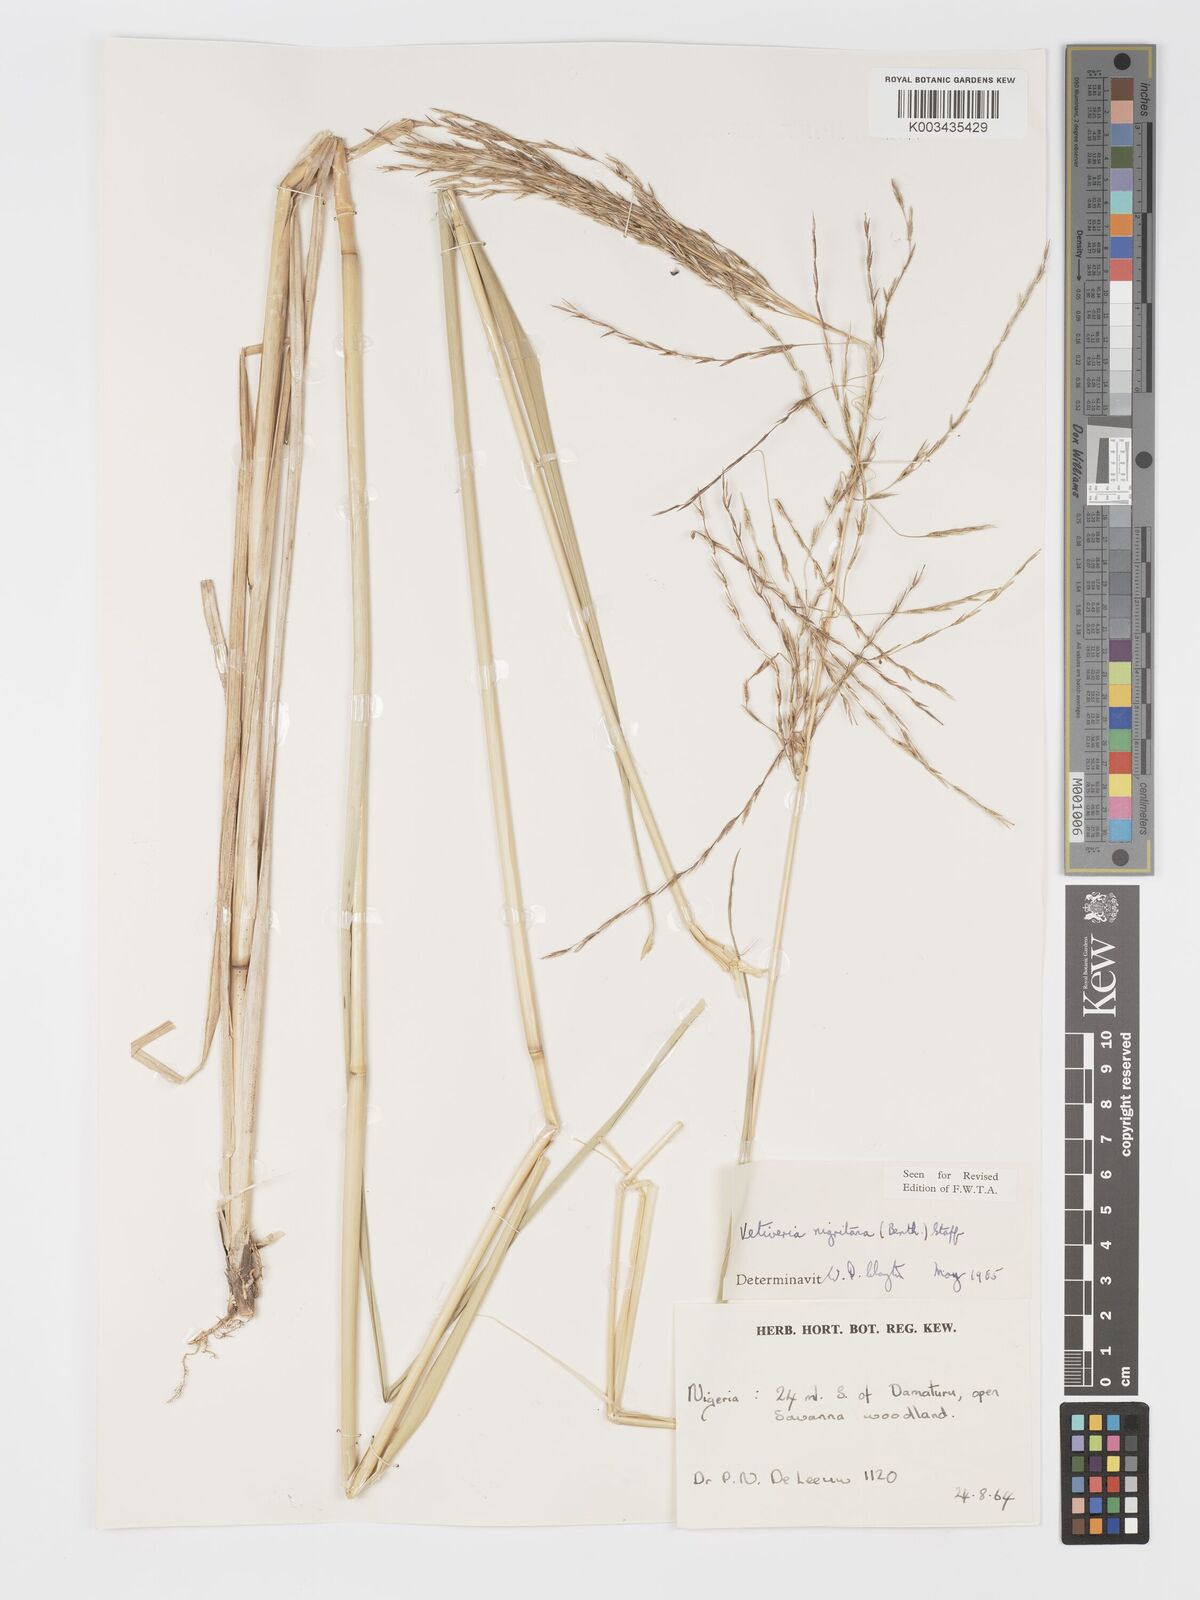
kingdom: Plantae
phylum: Tracheophyta
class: Liliopsida
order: Poales
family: Poaceae
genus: Chrysopogon
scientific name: Chrysopogon nigritanus
